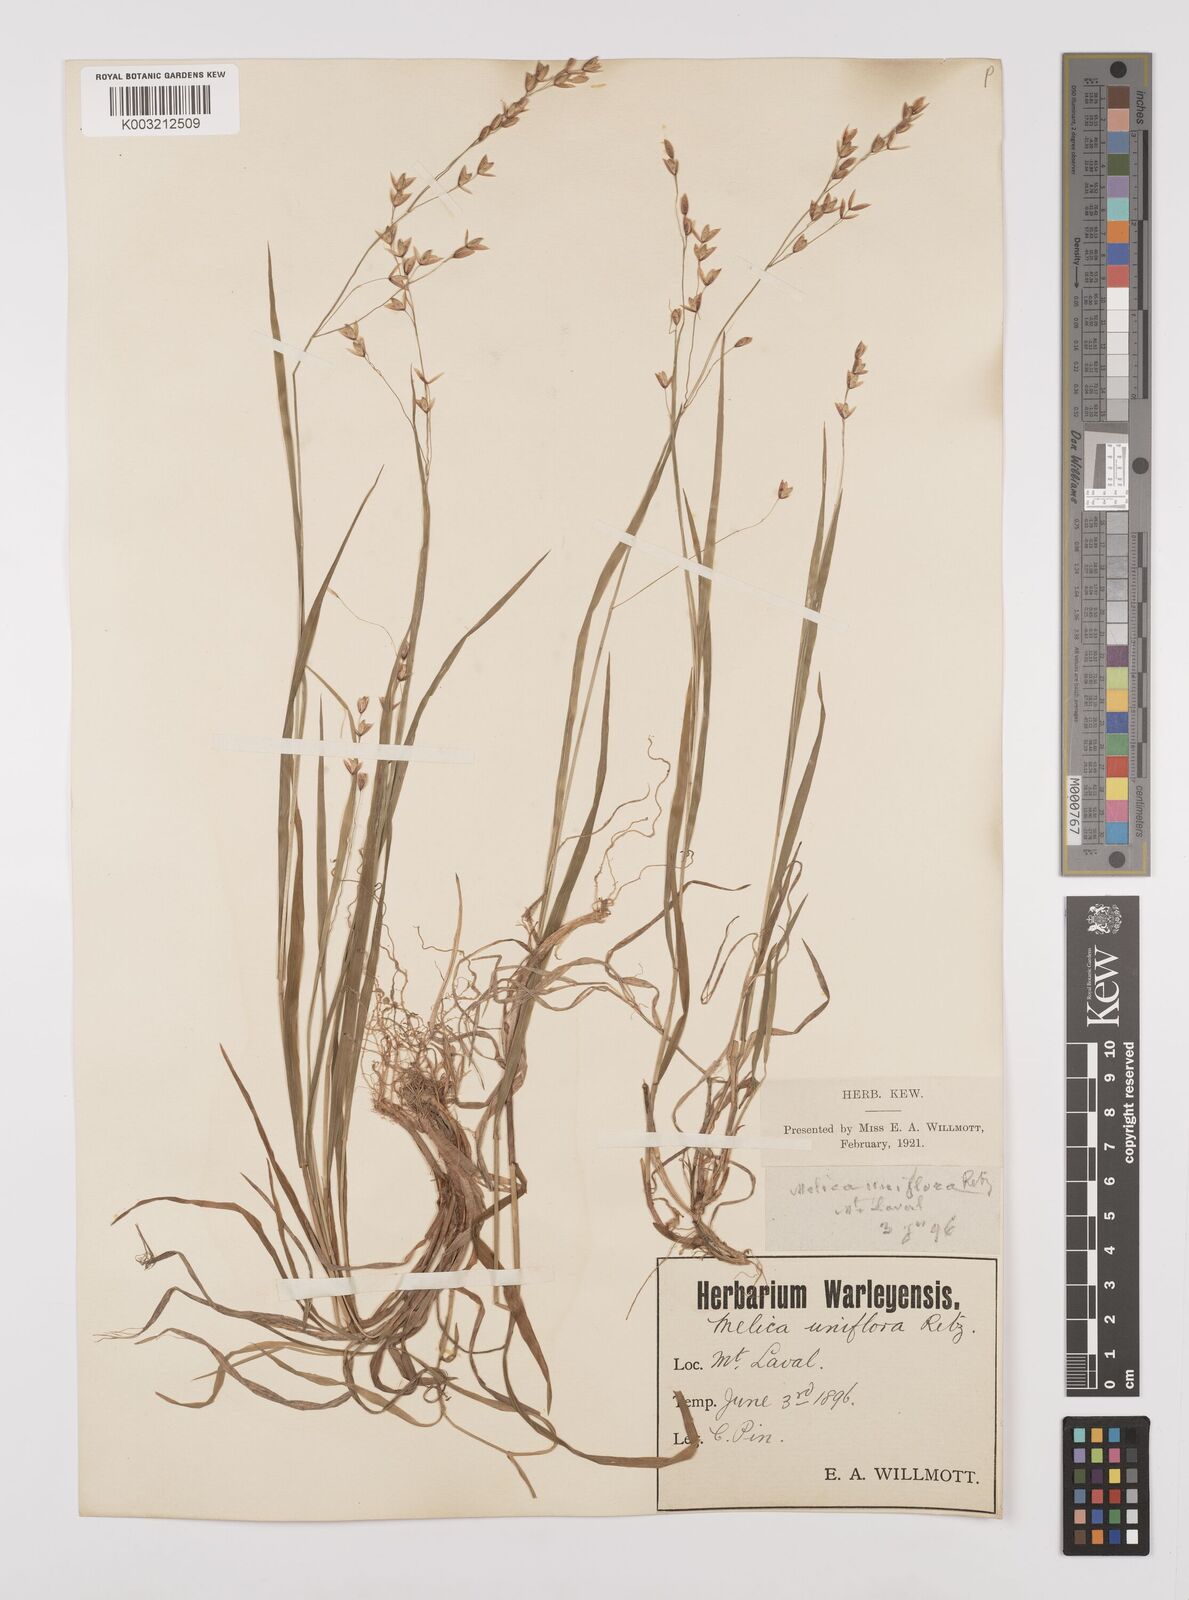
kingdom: Plantae
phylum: Tracheophyta
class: Liliopsida
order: Poales
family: Poaceae
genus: Melica
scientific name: Melica uniflora
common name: Wood melick
